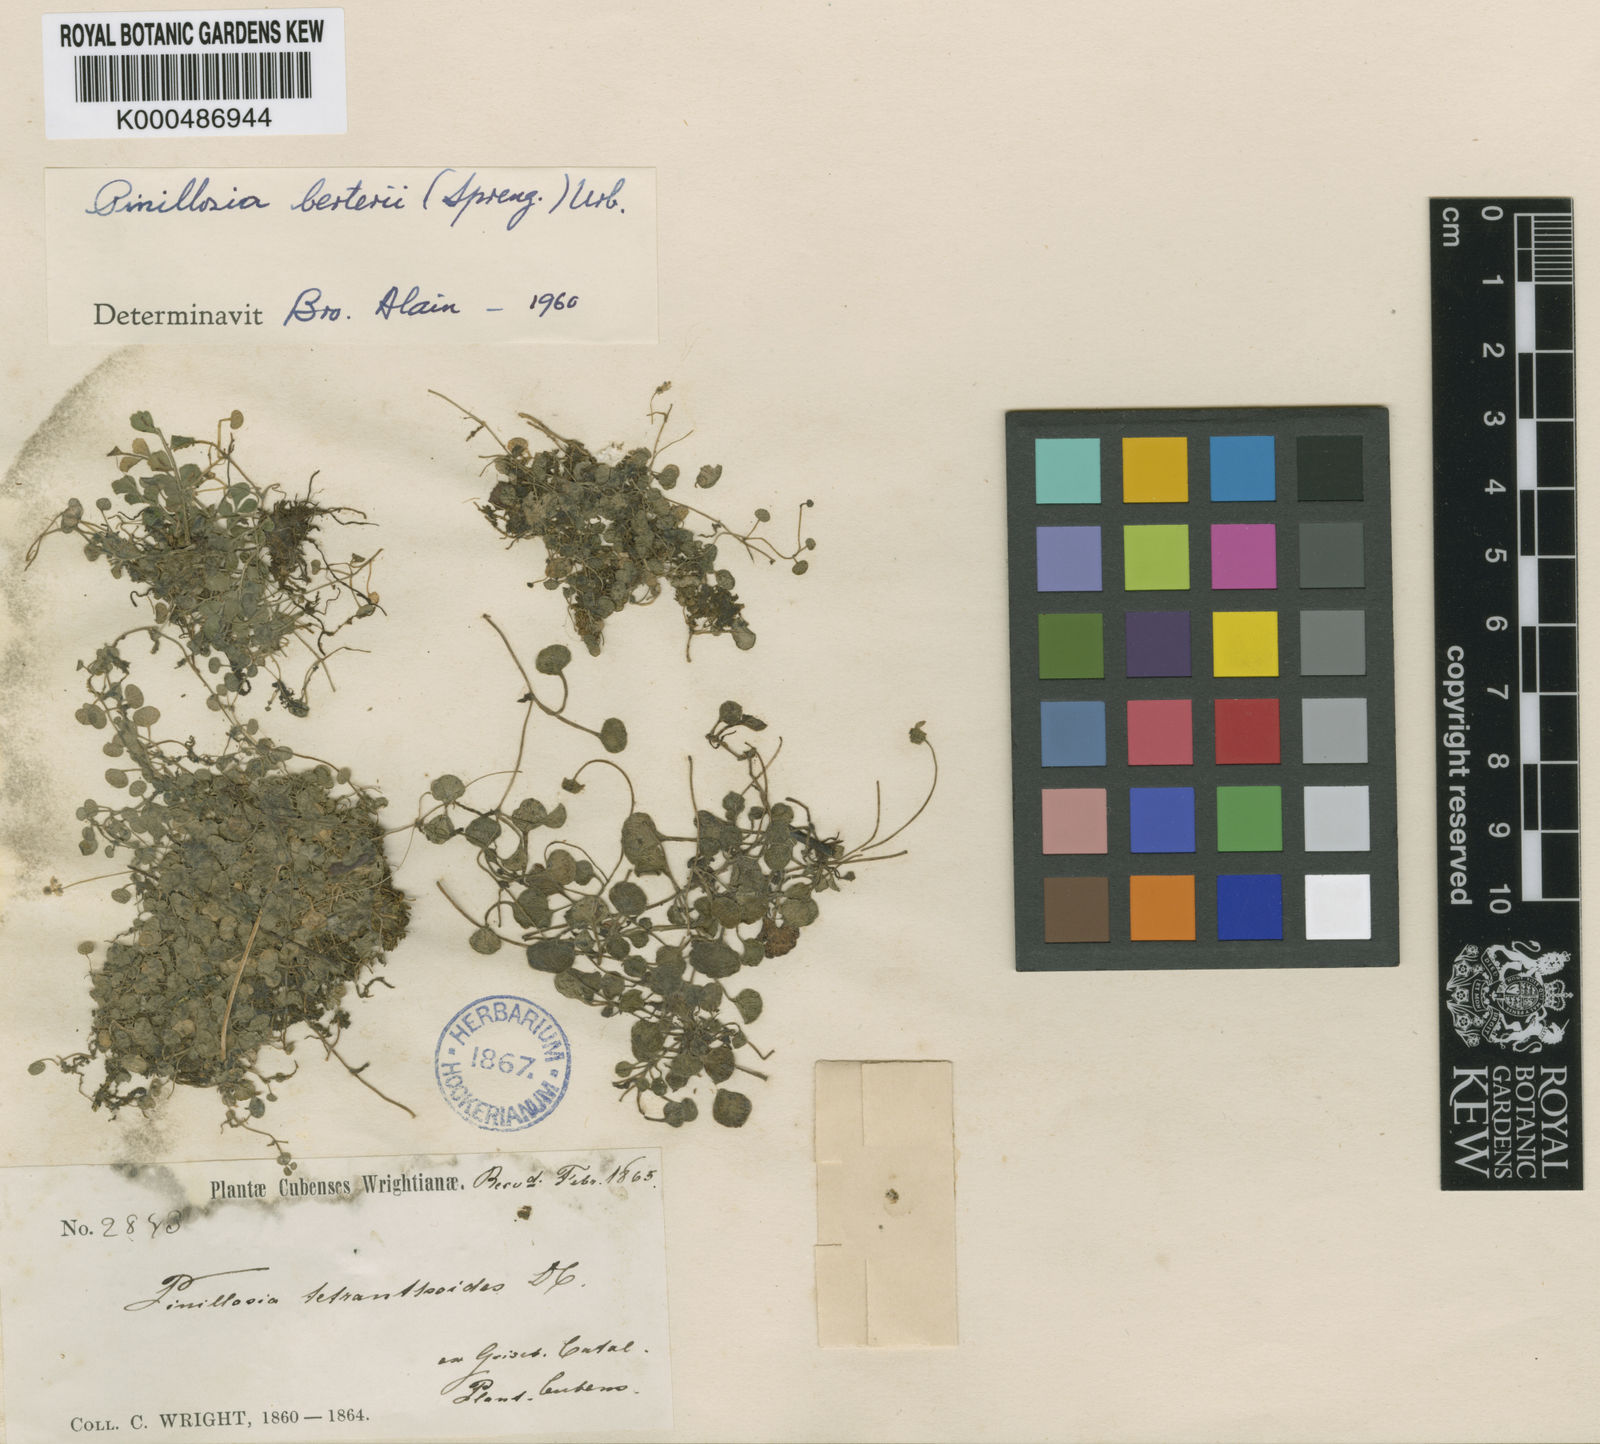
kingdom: Plantae
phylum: Tracheophyta
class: Magnoliopsida
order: Asterales
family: Asteraceae
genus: Pinillosia
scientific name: Pinillosia berteroi
